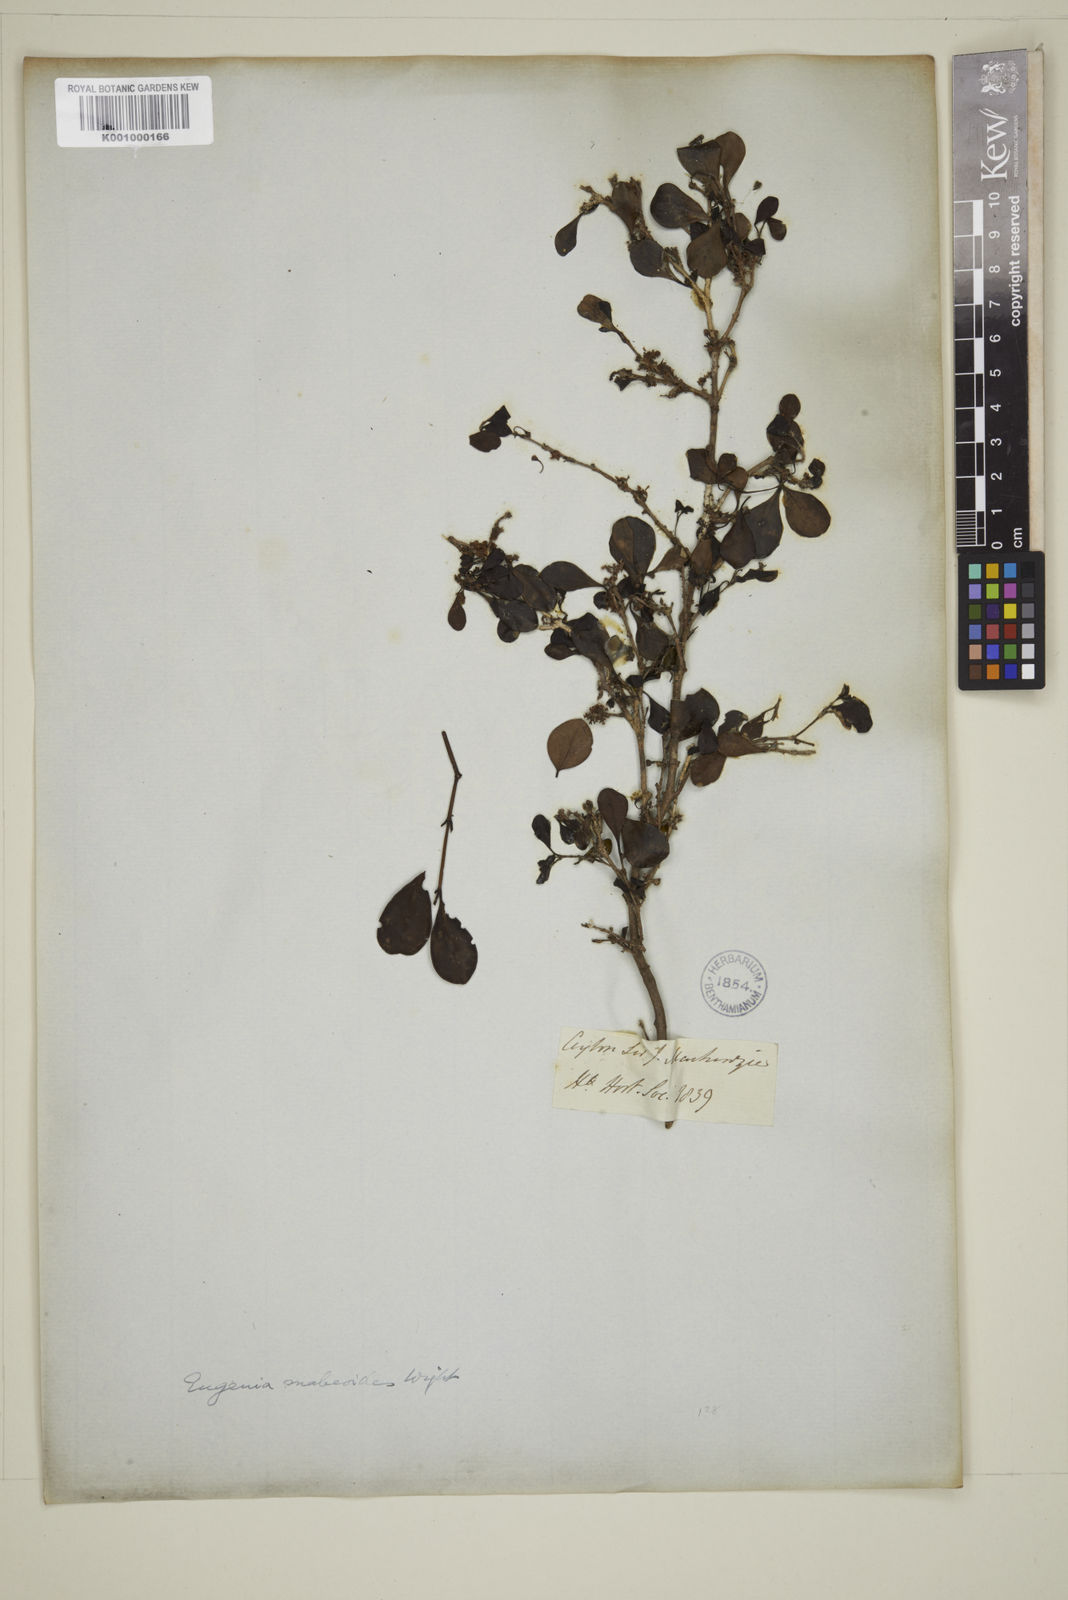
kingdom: Plantae
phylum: Tracheophyta
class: Magnoliopsida
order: Myrtales
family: Myrtaceae
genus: Eugenia
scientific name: Eugenia mabaeoides
